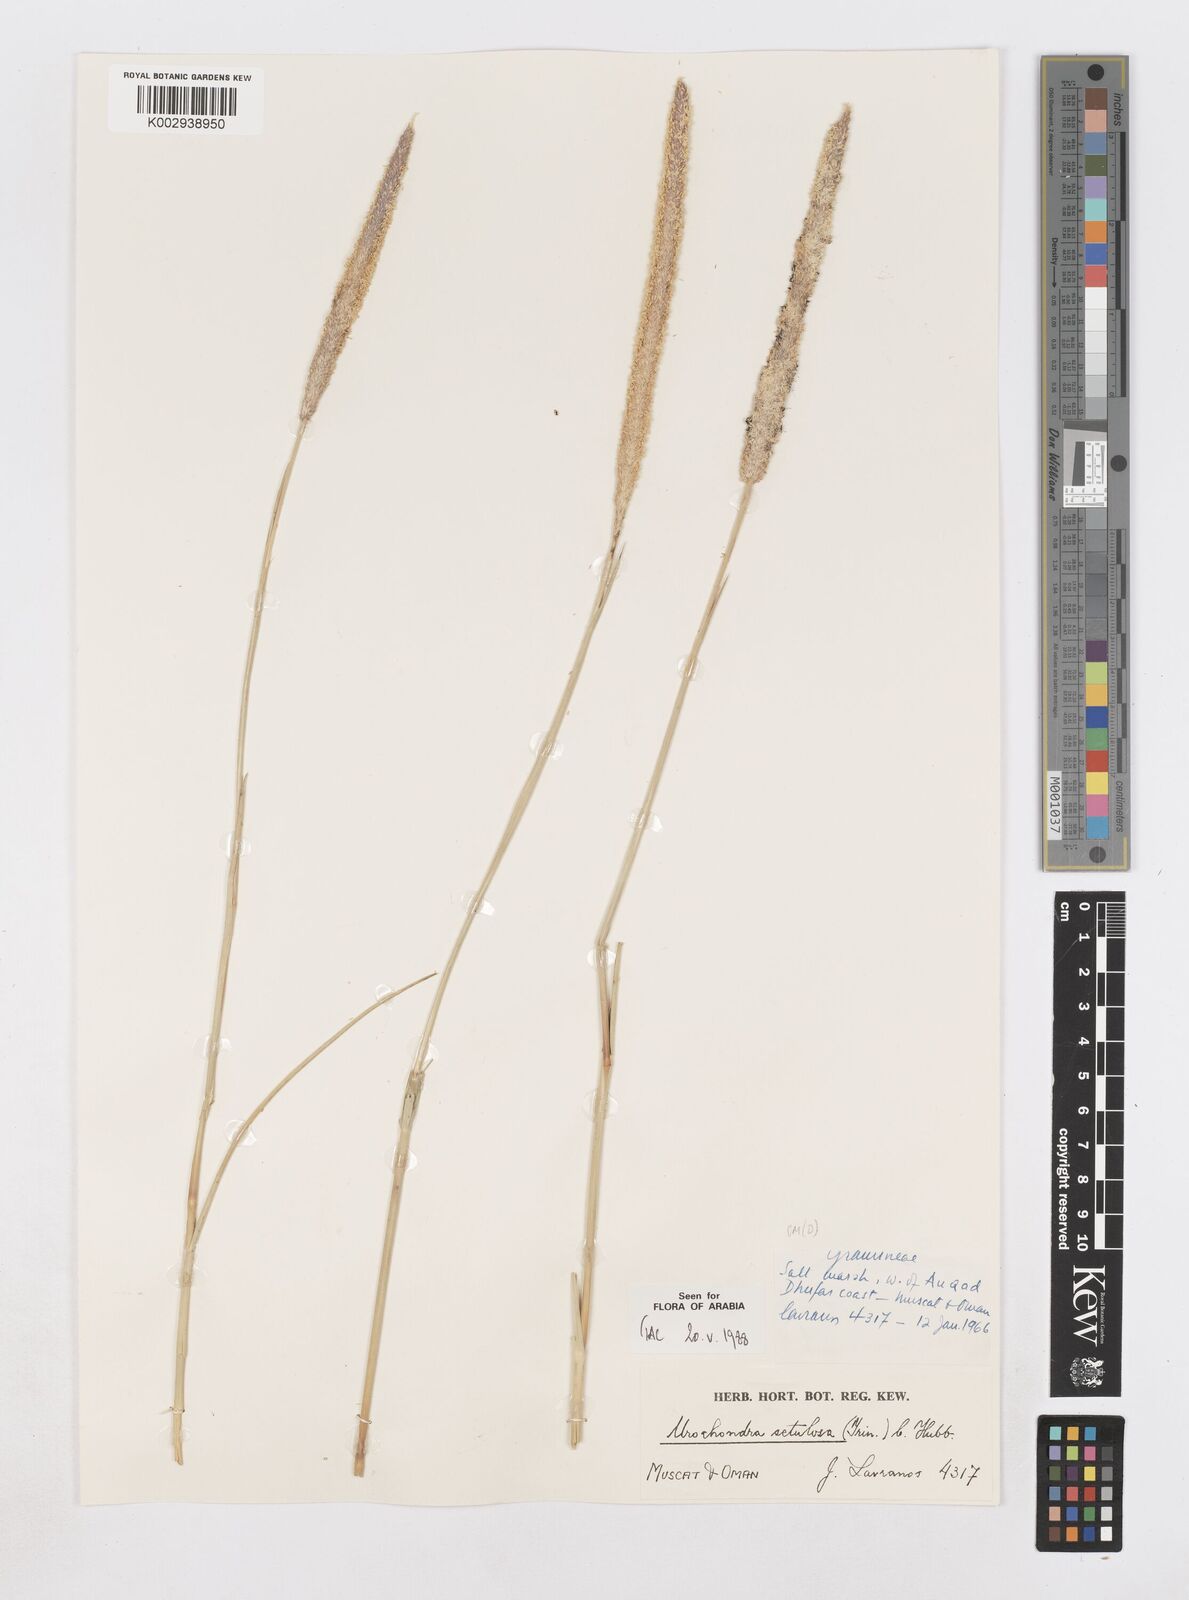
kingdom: Plantae
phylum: Tracheophyta
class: Liliopsida
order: Poales
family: Poaceae
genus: Urochondra
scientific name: Urochondra setulosa
